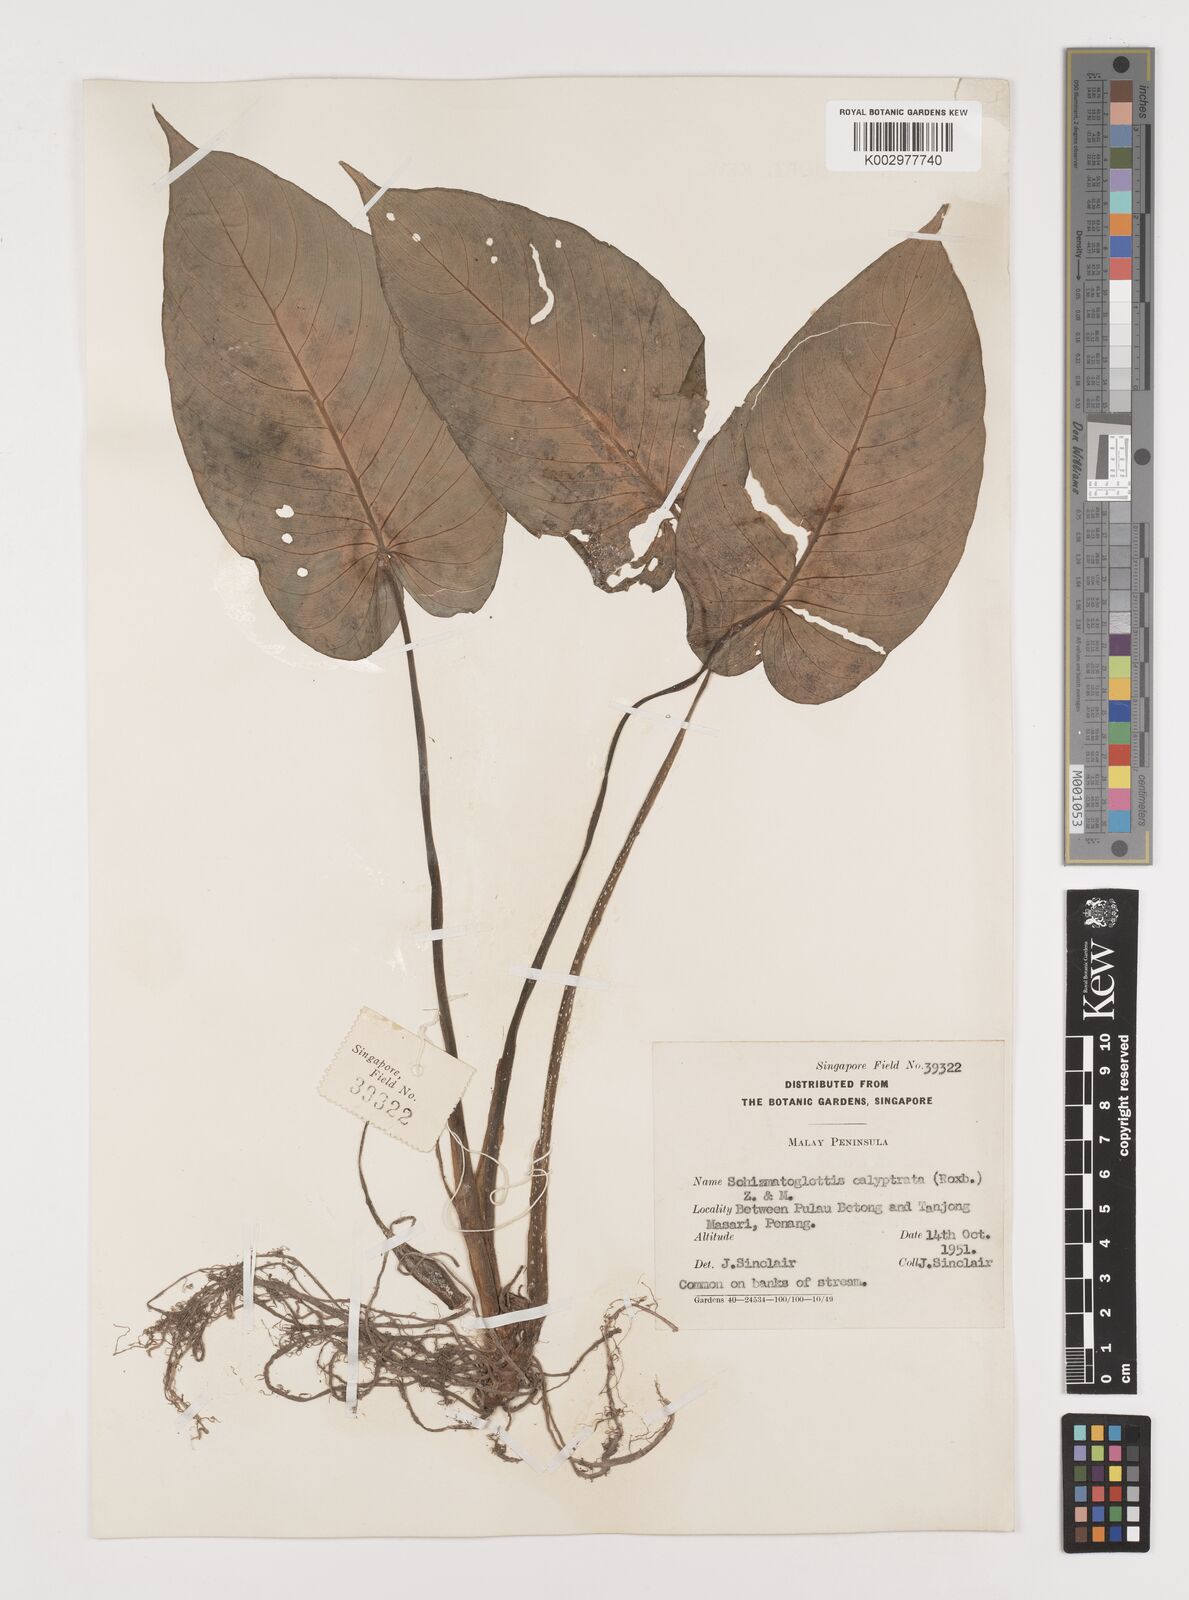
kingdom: Plantae
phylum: Tracheophyta
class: Liliopsida
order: Alismatales
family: Araceae
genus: Schismatoglottis
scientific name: Schismatoglottis calyptrata
